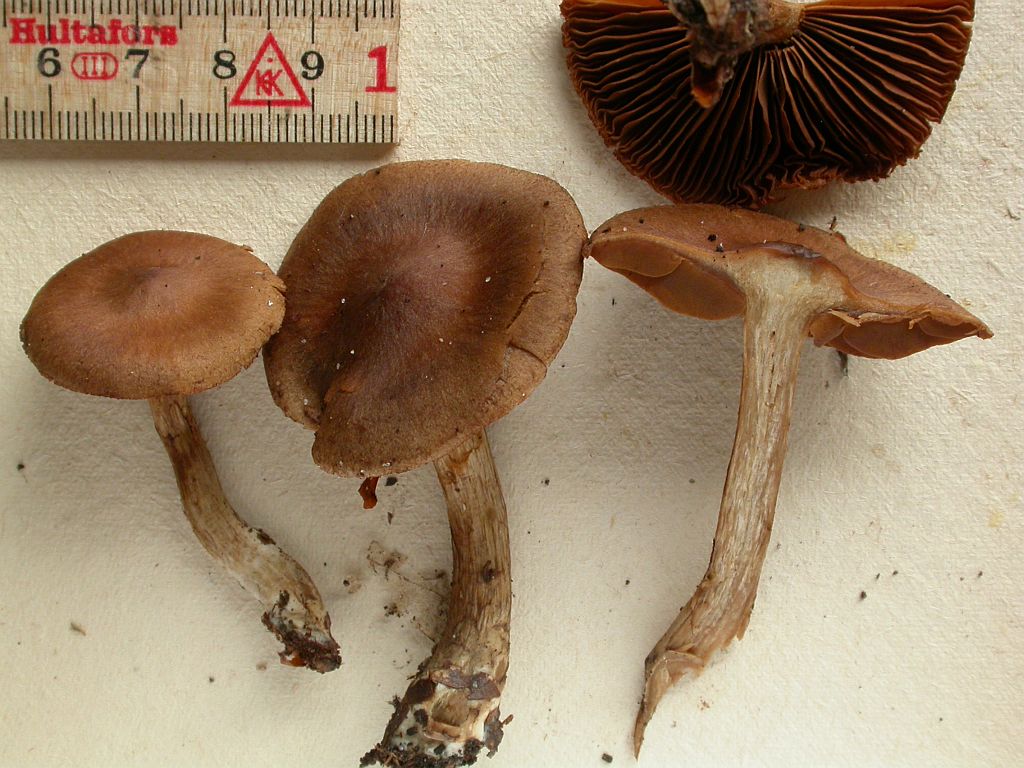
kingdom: Fungi
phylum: Basidiomycota
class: Agaricomycetes
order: Agaricales
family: Cortinariaceae
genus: Cortinarius
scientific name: Cortinarius valgus
